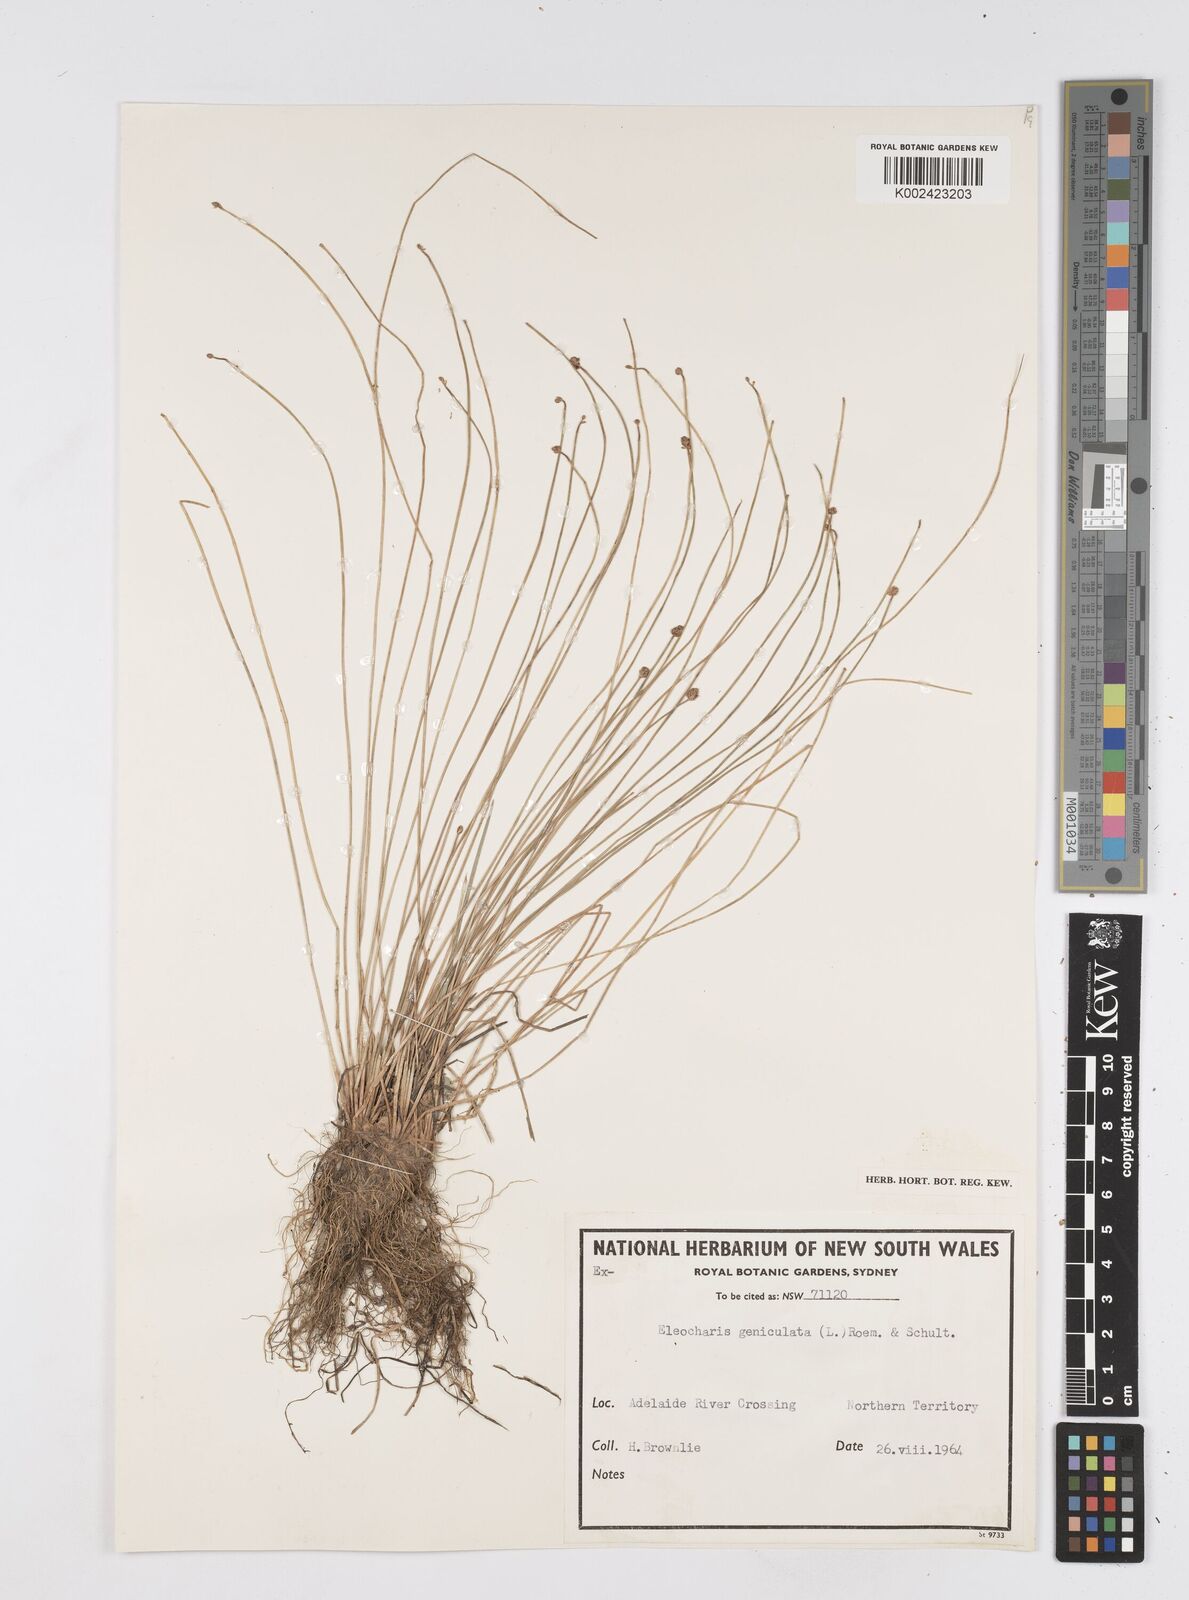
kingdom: Plantae
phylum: Tracheophyta
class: Liliopsida
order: Poales
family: Cyperaceae
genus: Eleocharis
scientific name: Eleocharis geniculata
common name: Canada spikesedge
